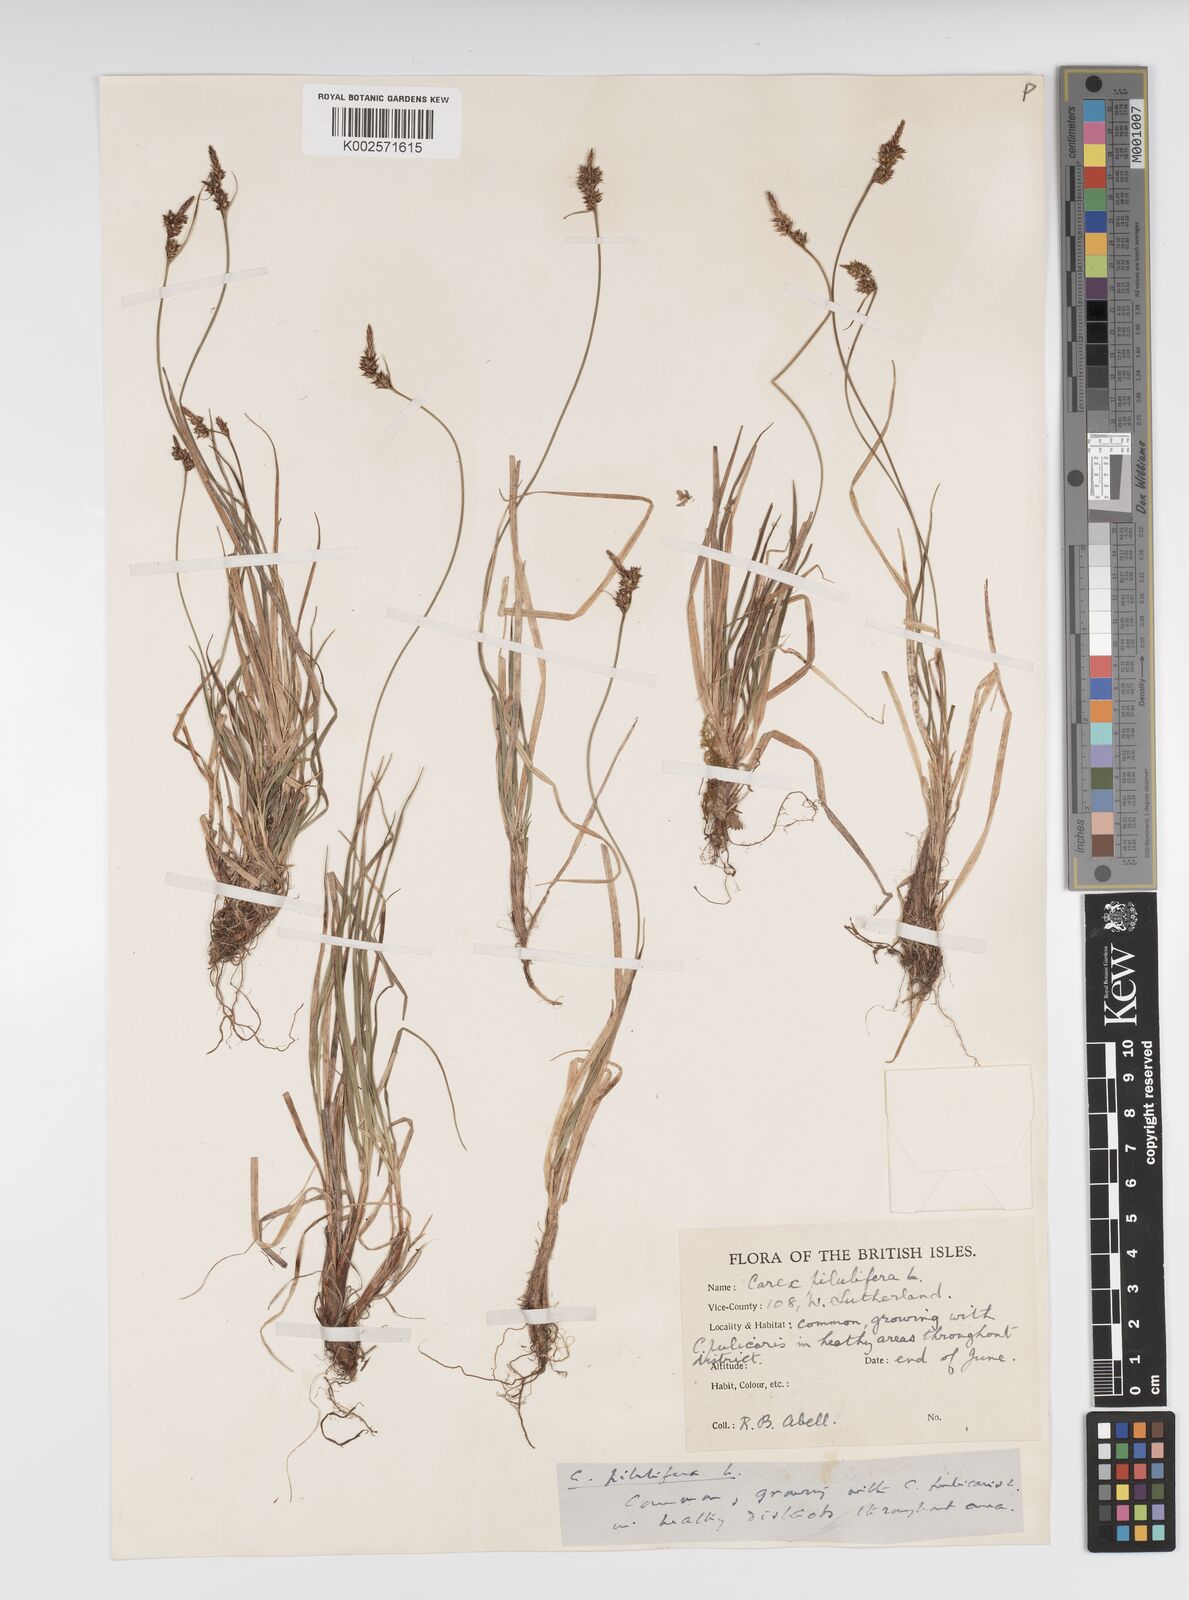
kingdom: Plantae
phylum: Tracheophyta
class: Liliopsida
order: Poales
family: Cyperaceae
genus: Carex
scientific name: Carex caryophyllea
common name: Spring sedge
